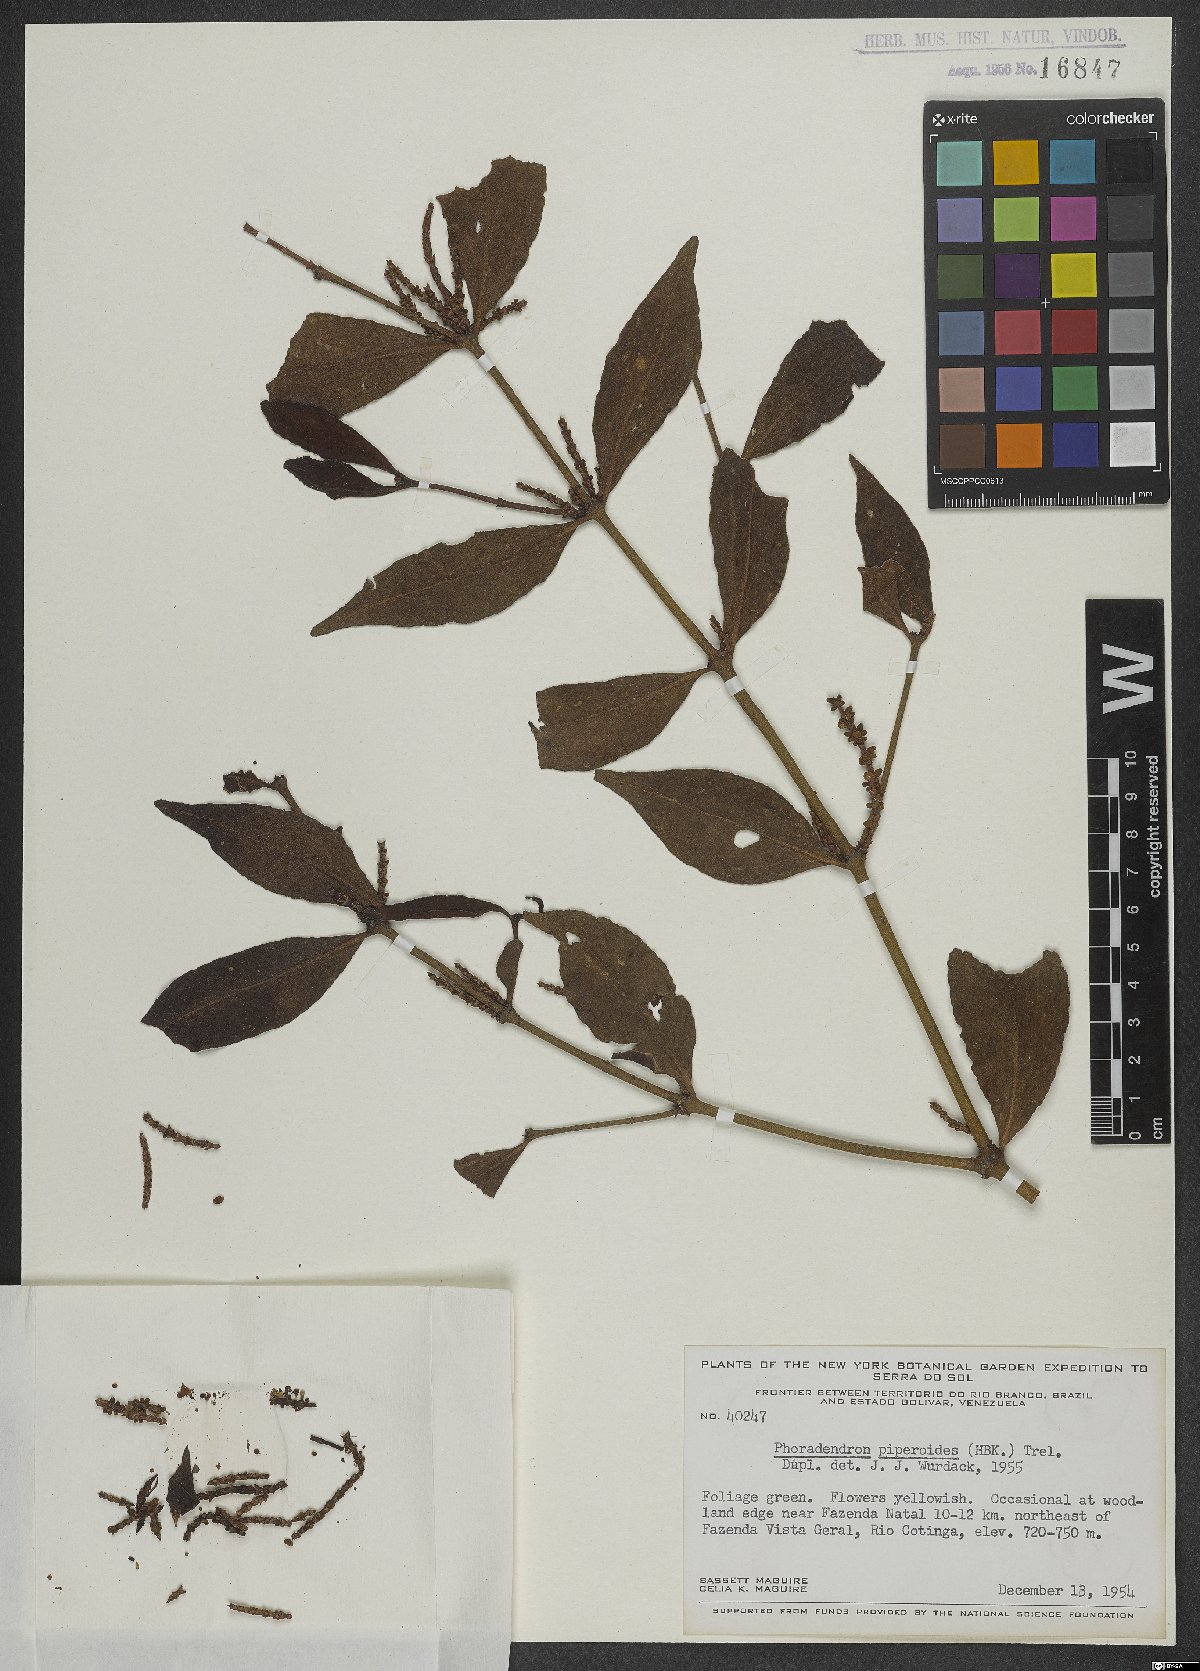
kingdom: Plantae
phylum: Tracheophyta
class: Magnoliopsida
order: Santalales
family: Viscaceae
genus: Phoradendron
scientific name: Phoradendron piperoides
